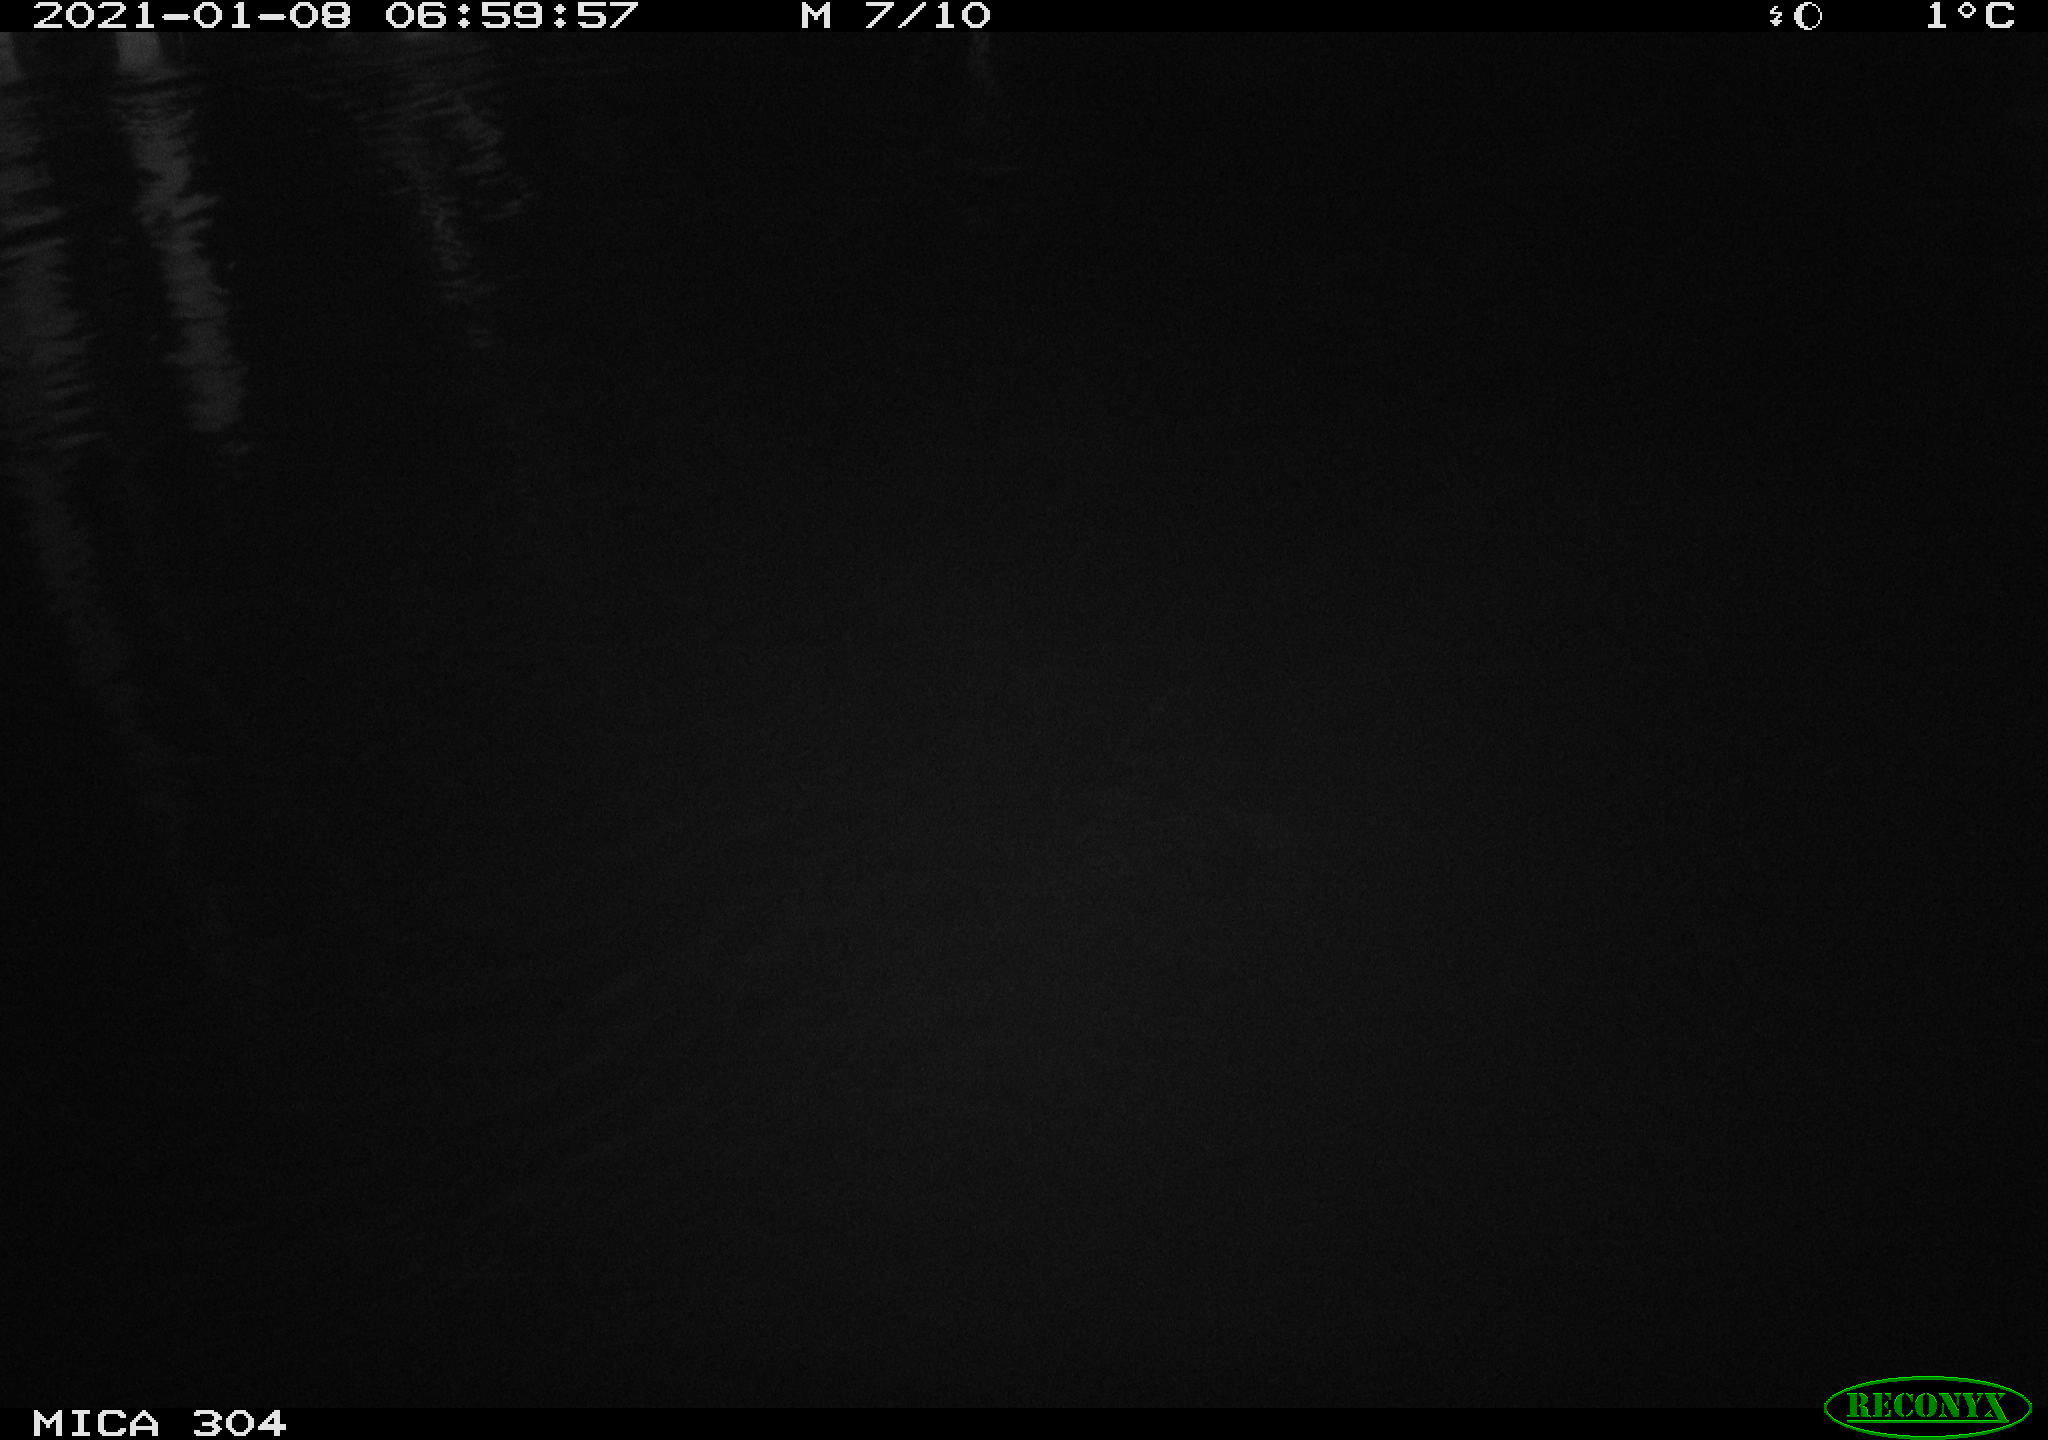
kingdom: Animalia
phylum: Chordata
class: Mammalia
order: Rodentia
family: Muridae
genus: Rattus
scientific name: Rattus norvegicus
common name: Brown rat
